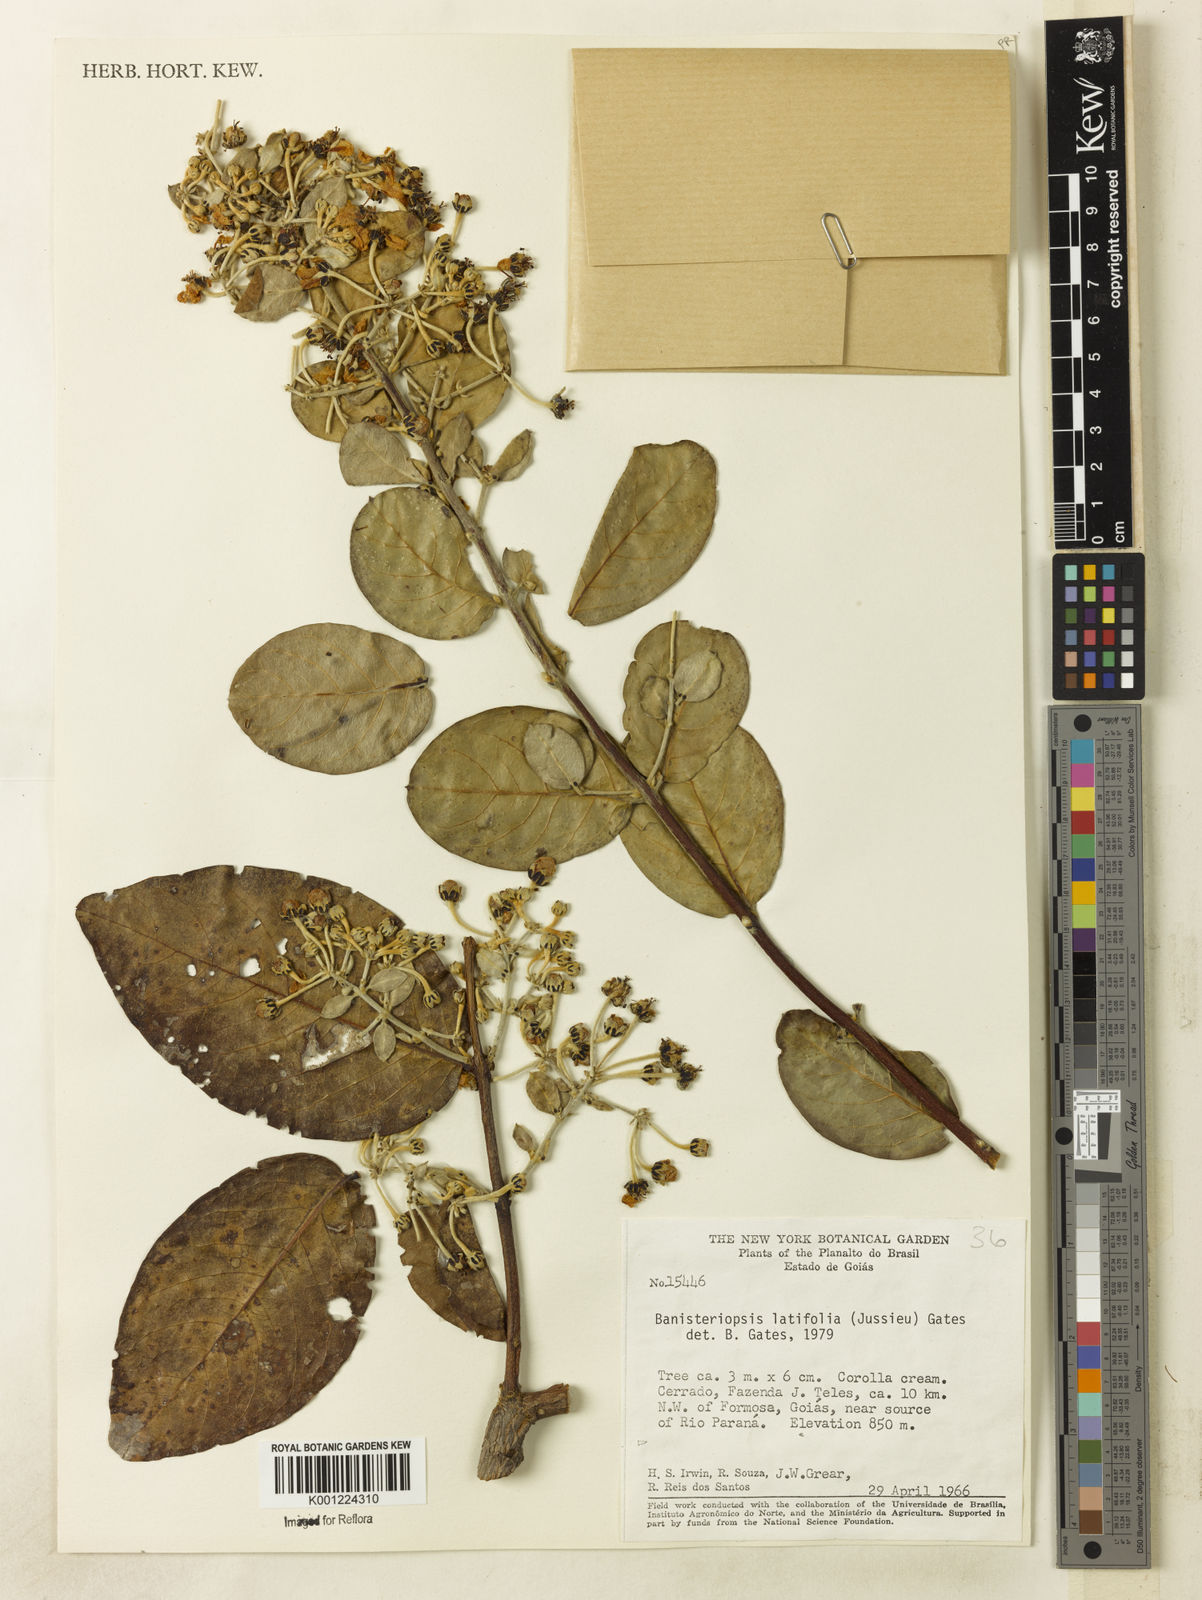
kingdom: Plantae
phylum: Tracheophyta
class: Magnoliopsida
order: Malpighiales
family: Malpighiaceae
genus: Banisteriopsis
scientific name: Banisteriopsis latifolia
